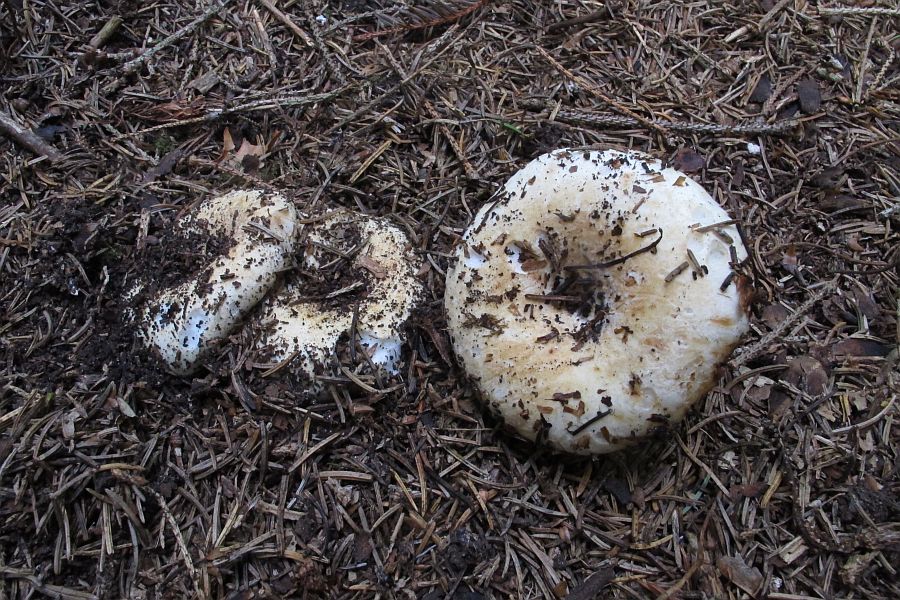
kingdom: Fungi
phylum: Basidiomycota
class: Agaricomycetes
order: Russulales
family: Russulaceae
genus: Russula
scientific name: Russula chloroides
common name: grønhalset tragt-skørhat
